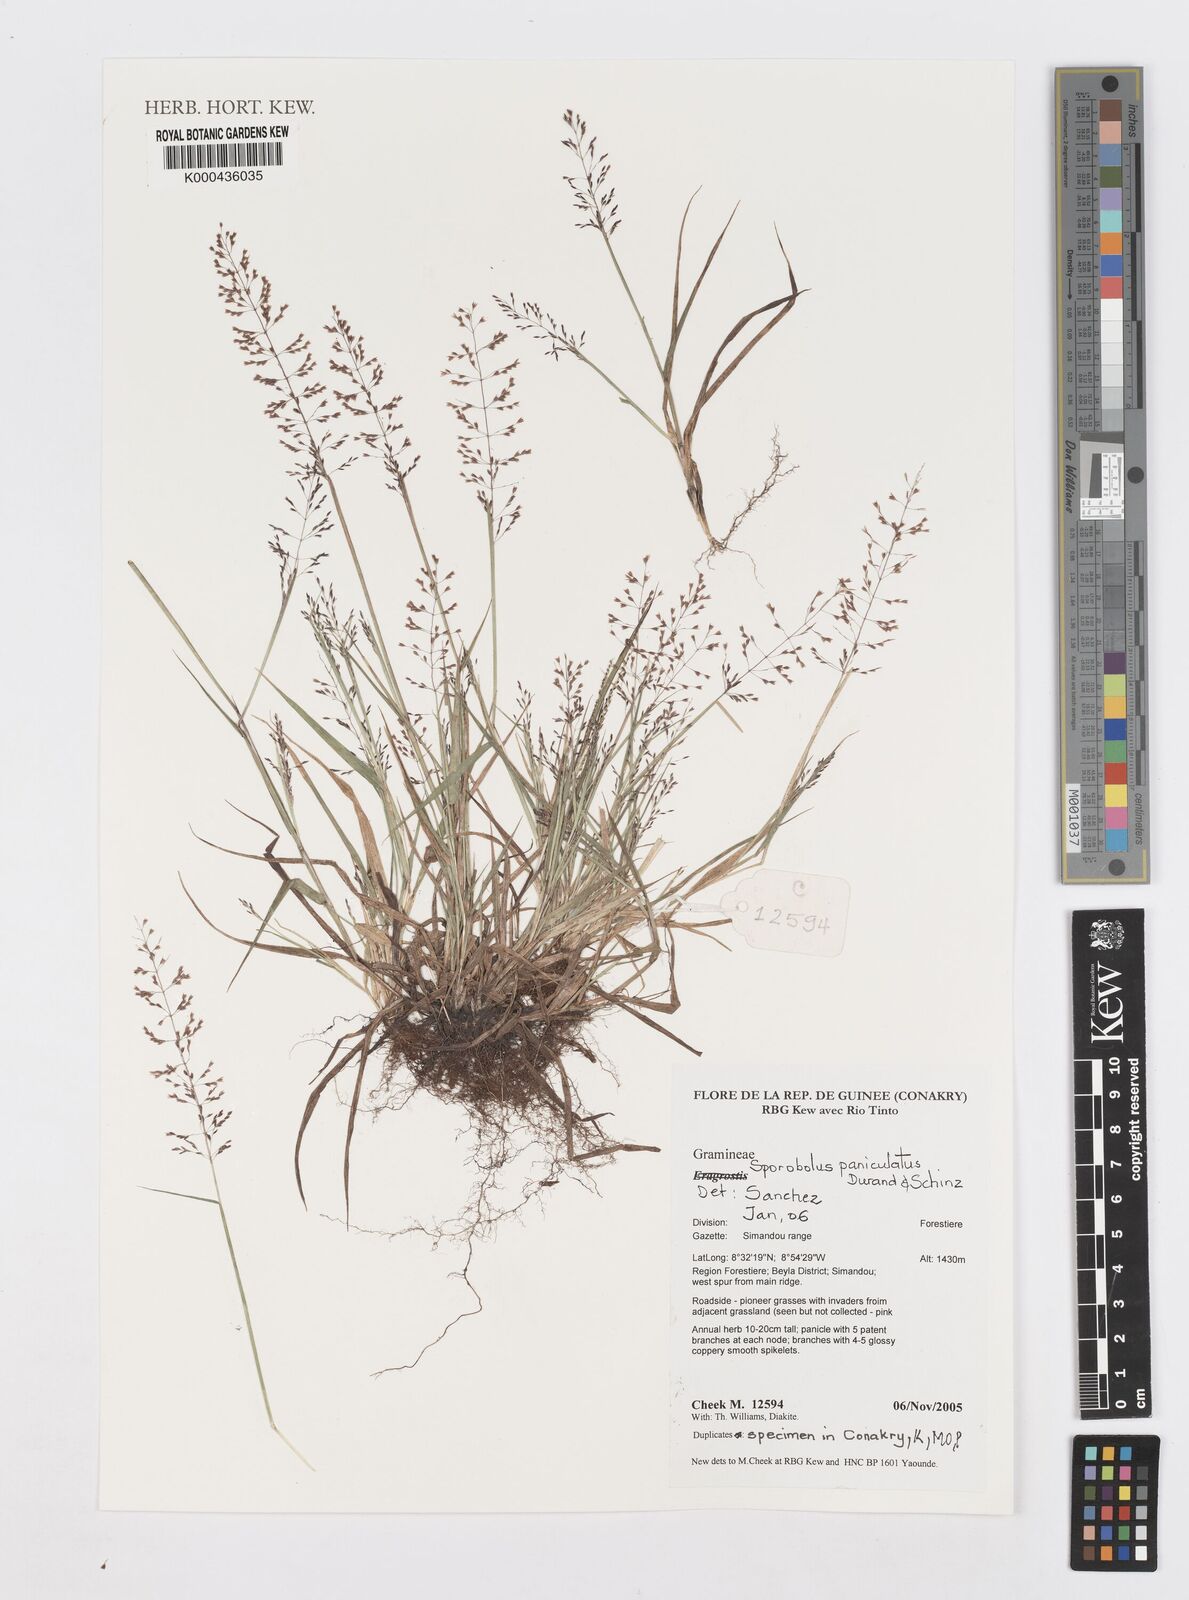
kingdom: Plantae
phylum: Tracheophyta
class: Liliopsida
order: Poales
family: Poaceae
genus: Sporobolus
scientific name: Sporobolus paniculatus
